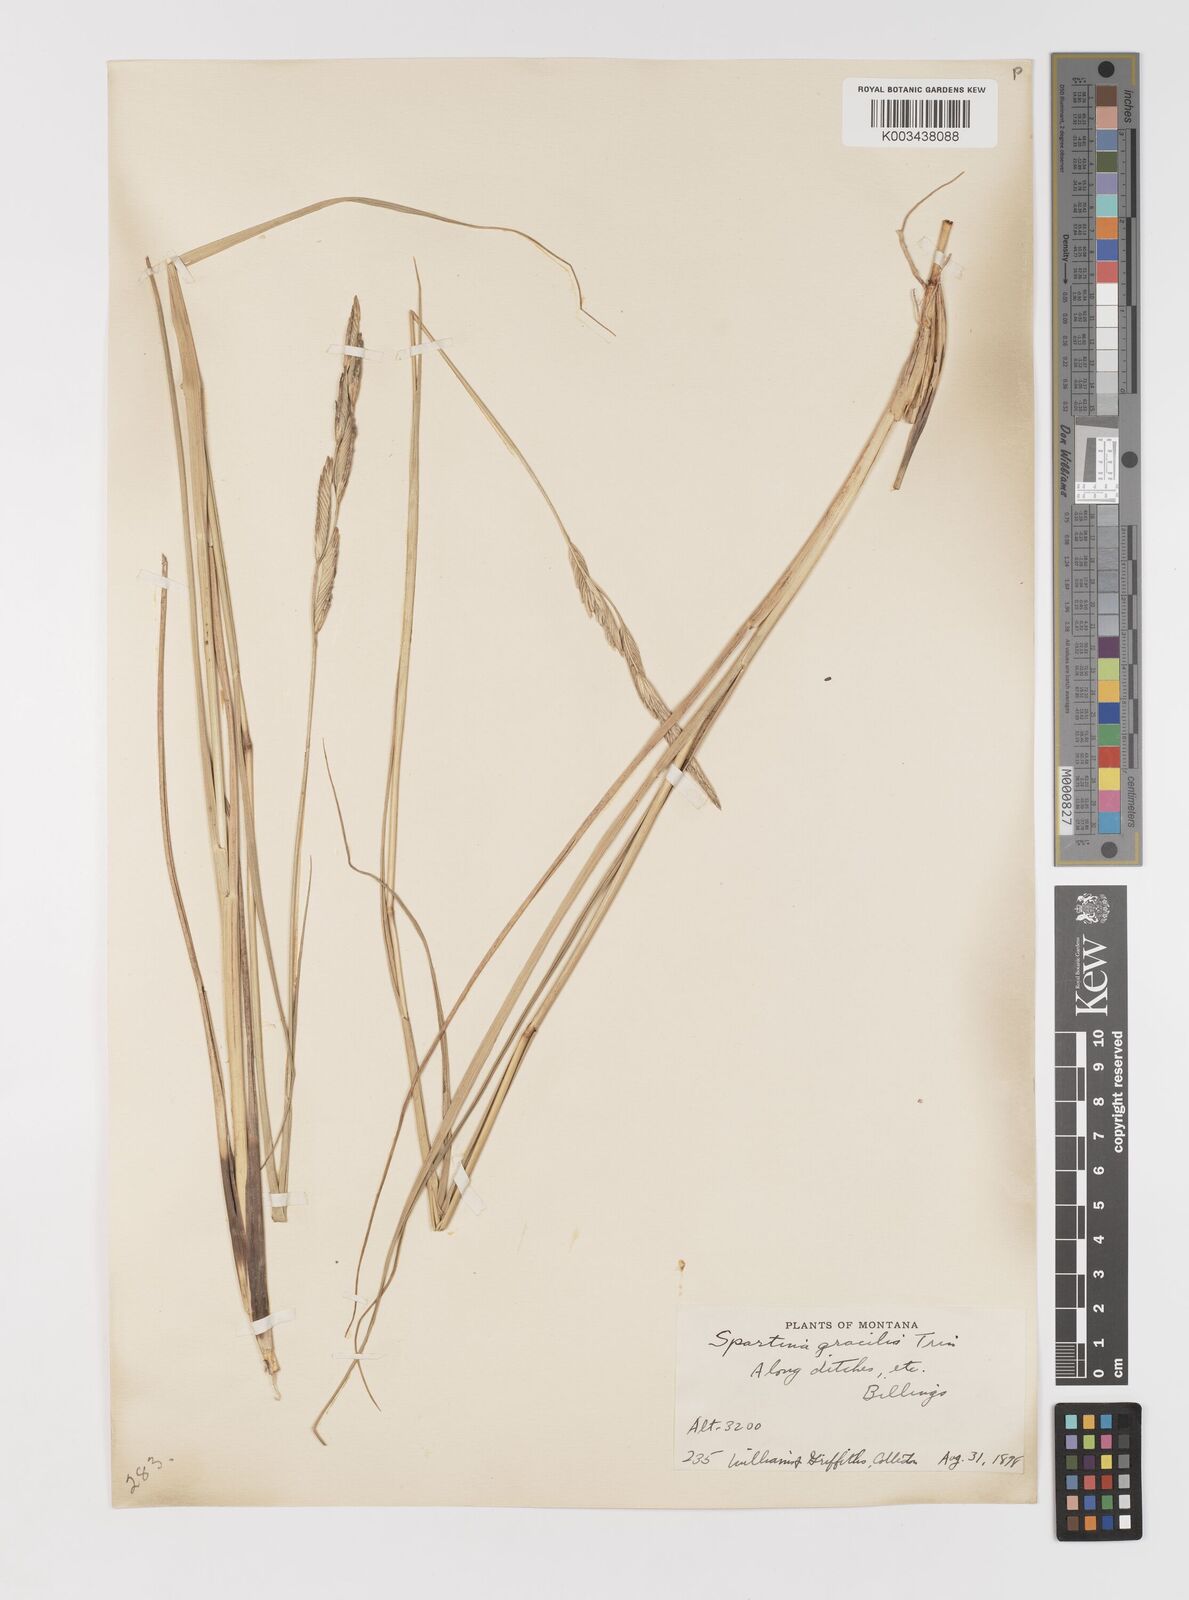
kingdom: Plantae
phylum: Tracheophyta
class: Liliopsida
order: Poales
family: Poaceae
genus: Sporobolus
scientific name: Sporobolus hookerianus
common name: Alkali cordgrass
